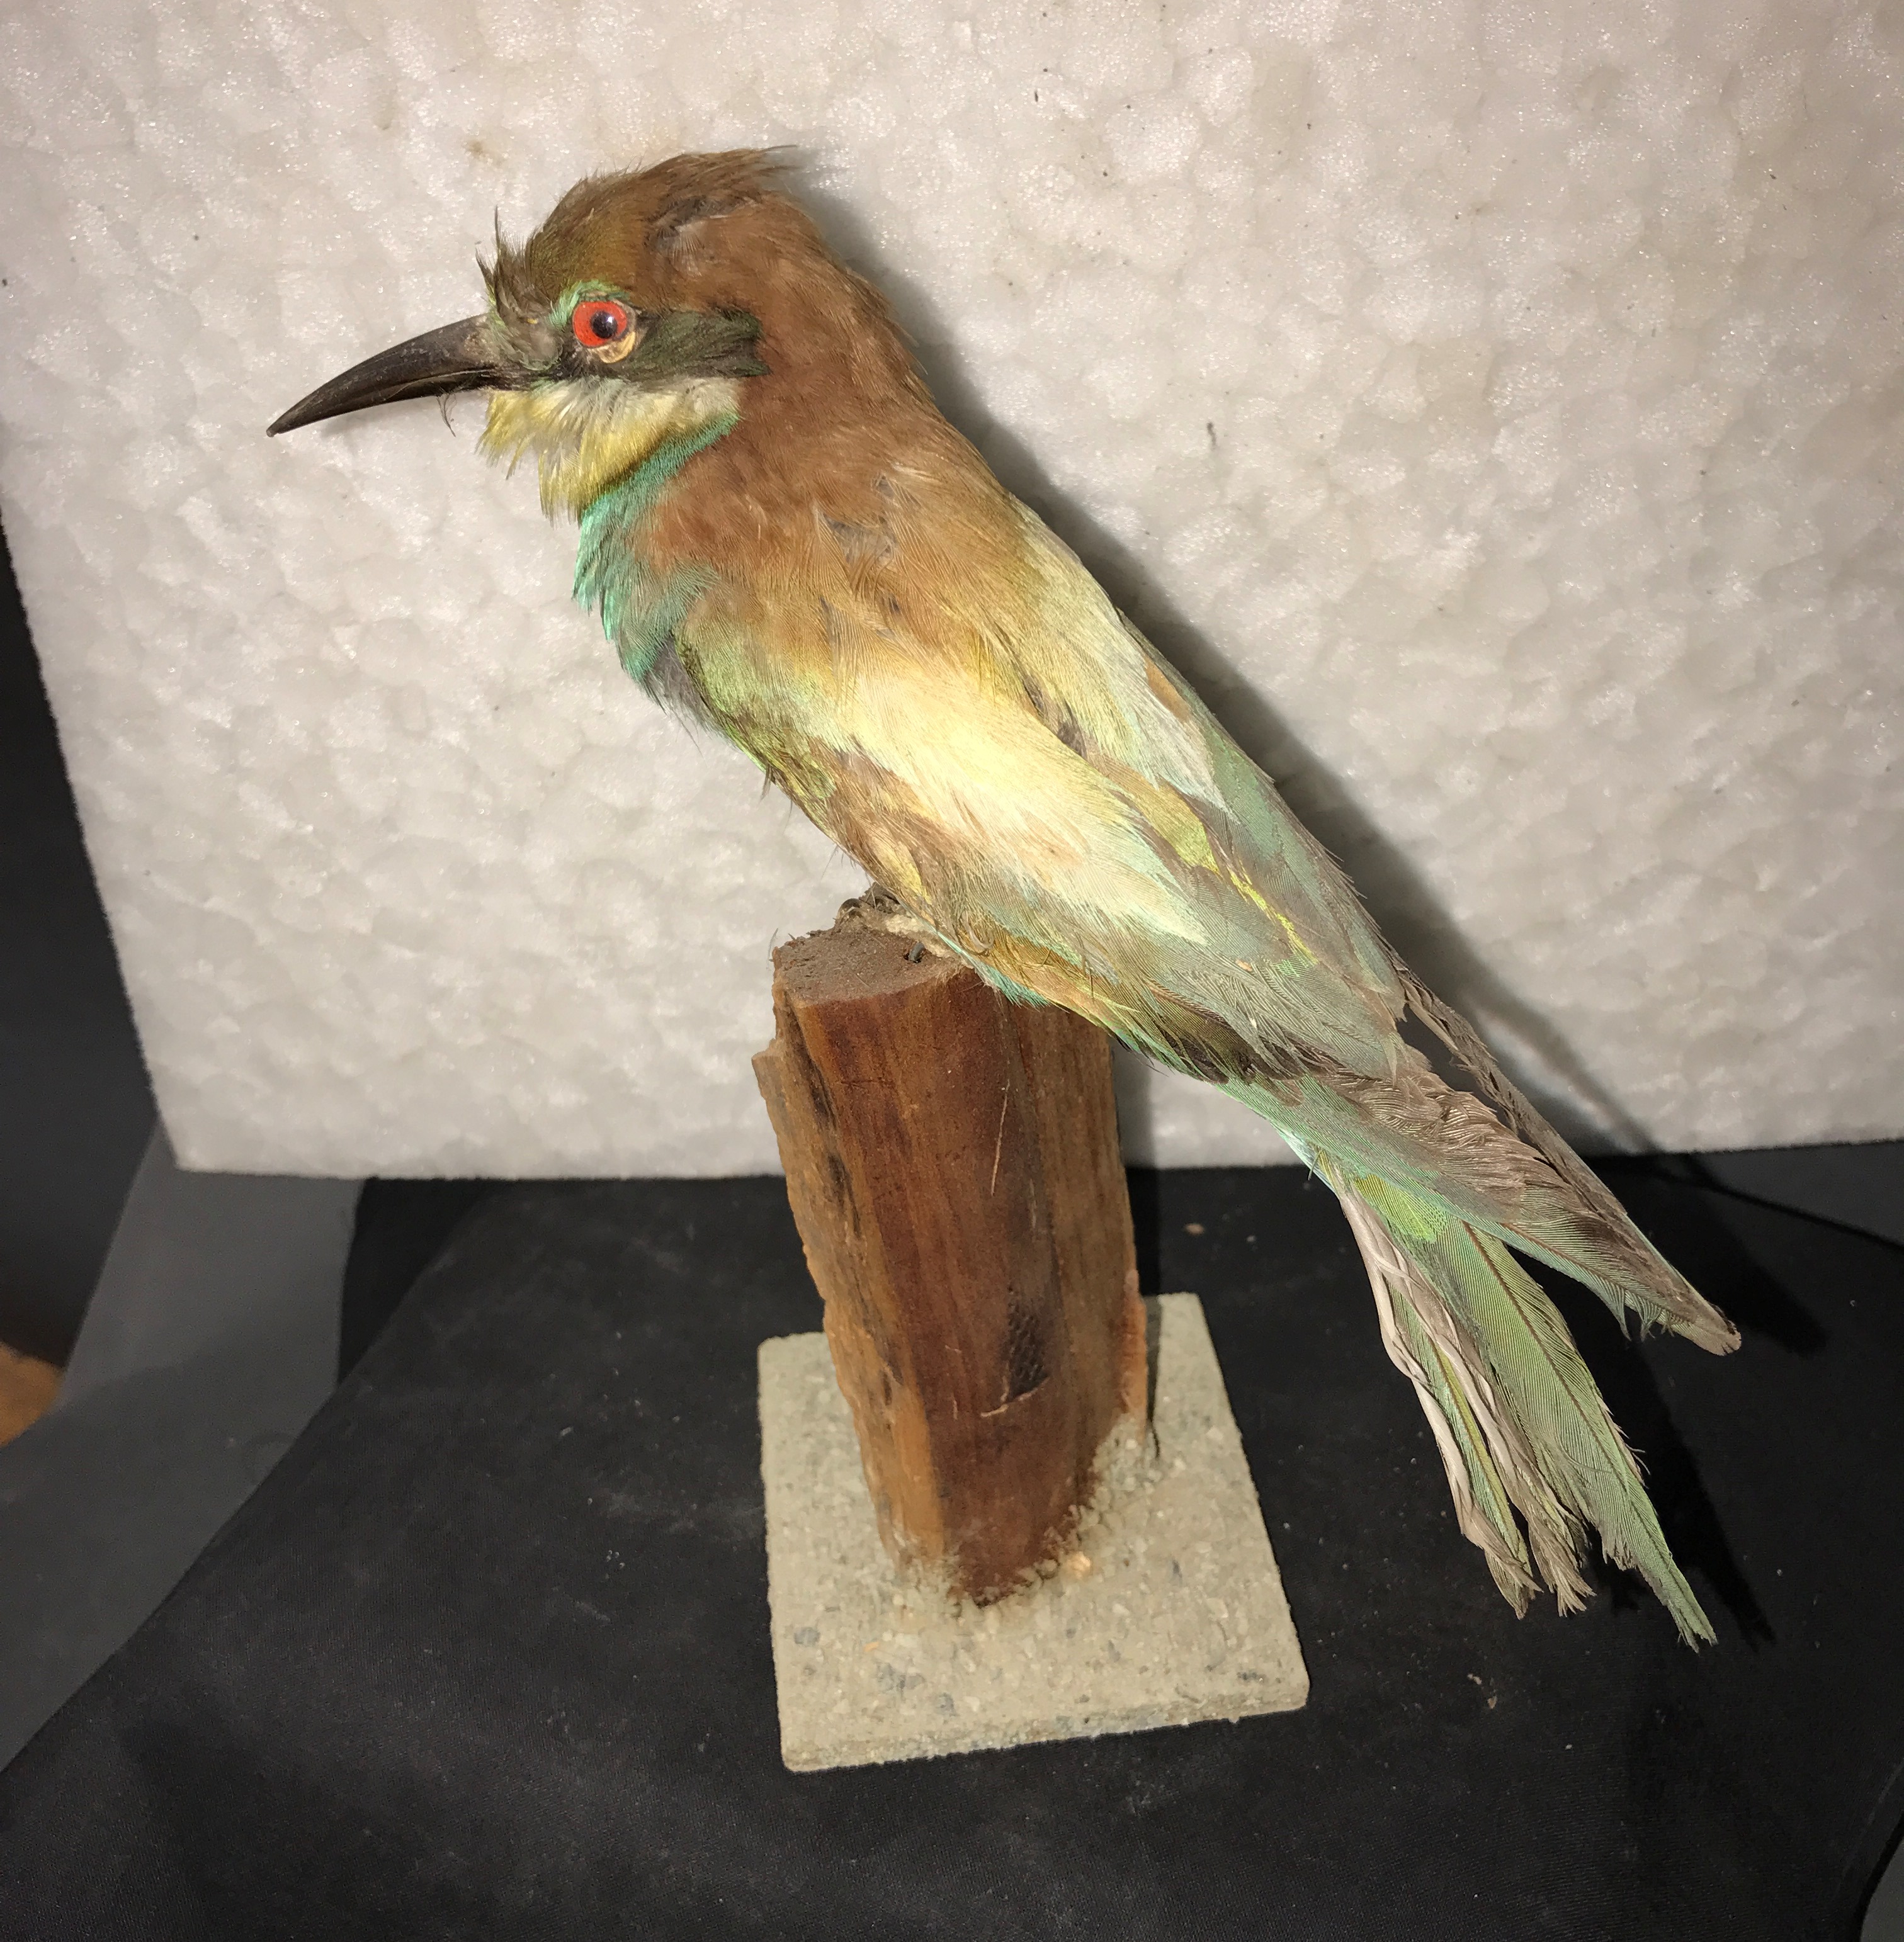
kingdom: Animalia
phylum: Chordata
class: Aves
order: Coraciiformes
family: Meropidae
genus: Merops
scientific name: Merops apiaster
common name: European bee-eater
